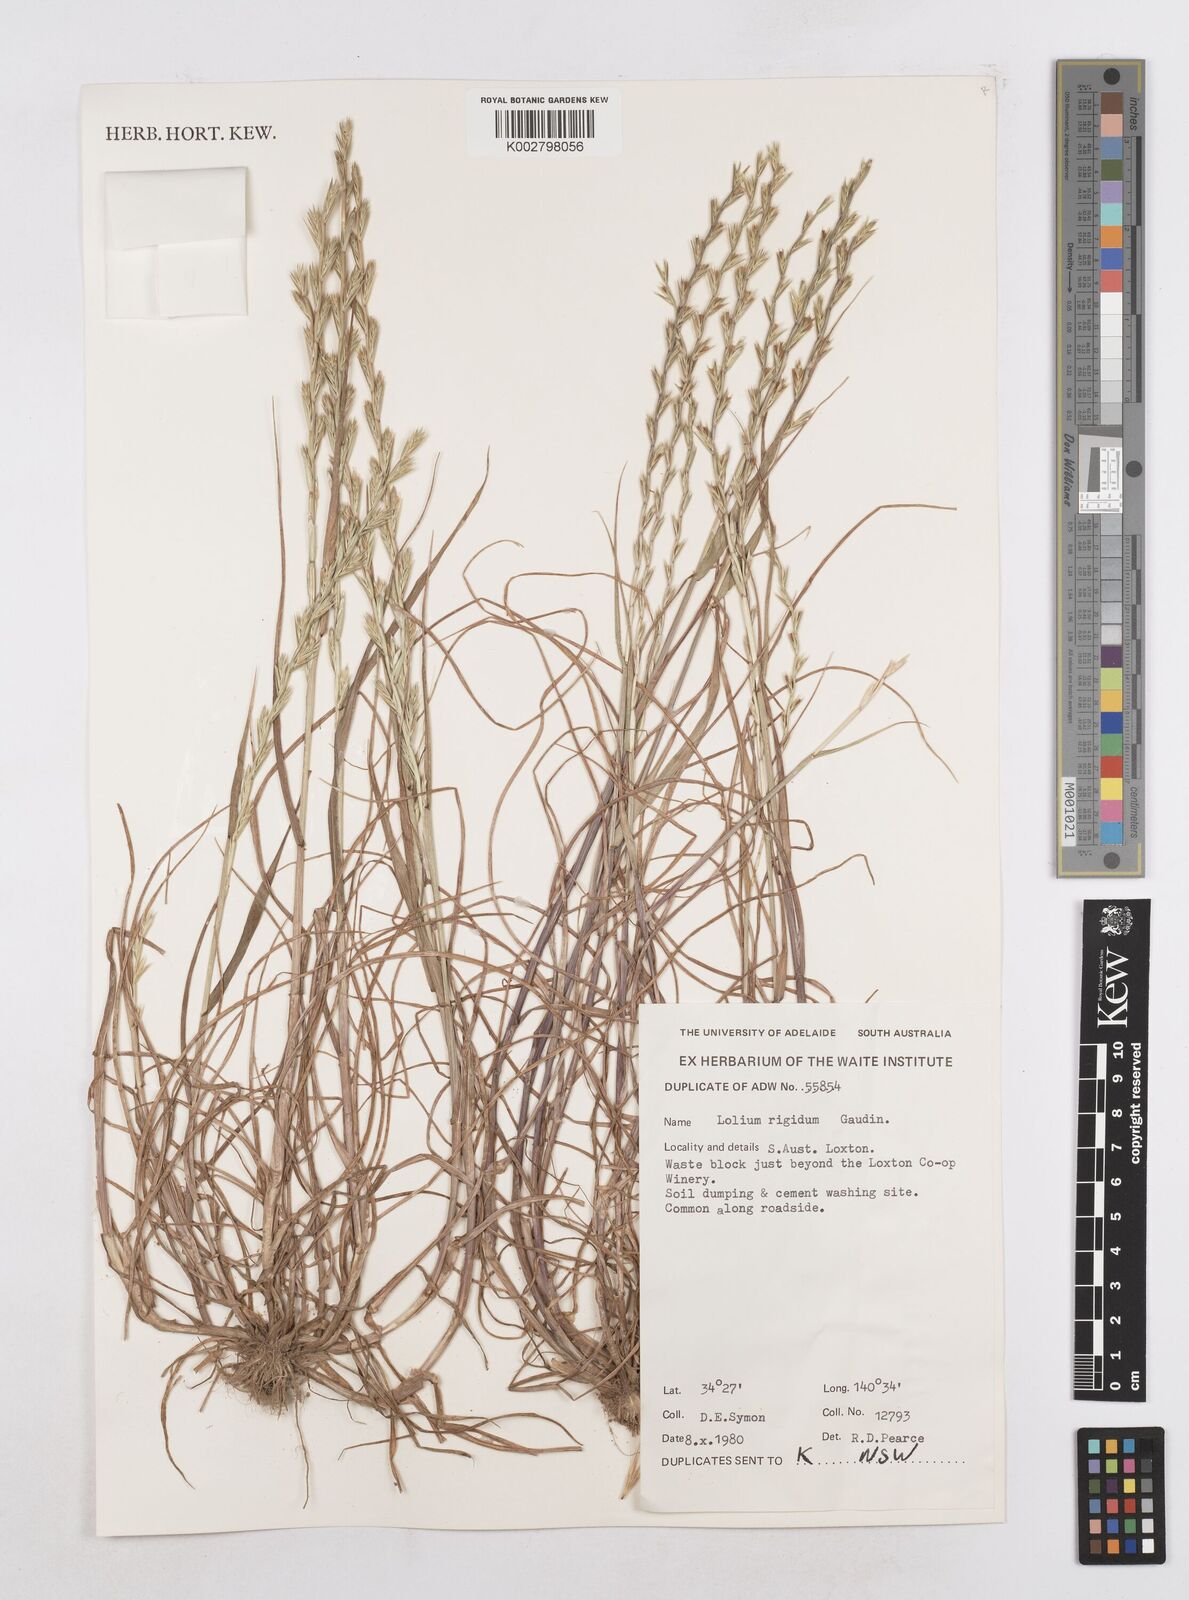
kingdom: Plantae
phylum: Tracheophyta
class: Liliopsida
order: Poales
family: Poaceae
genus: Lolium
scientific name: Lolium
